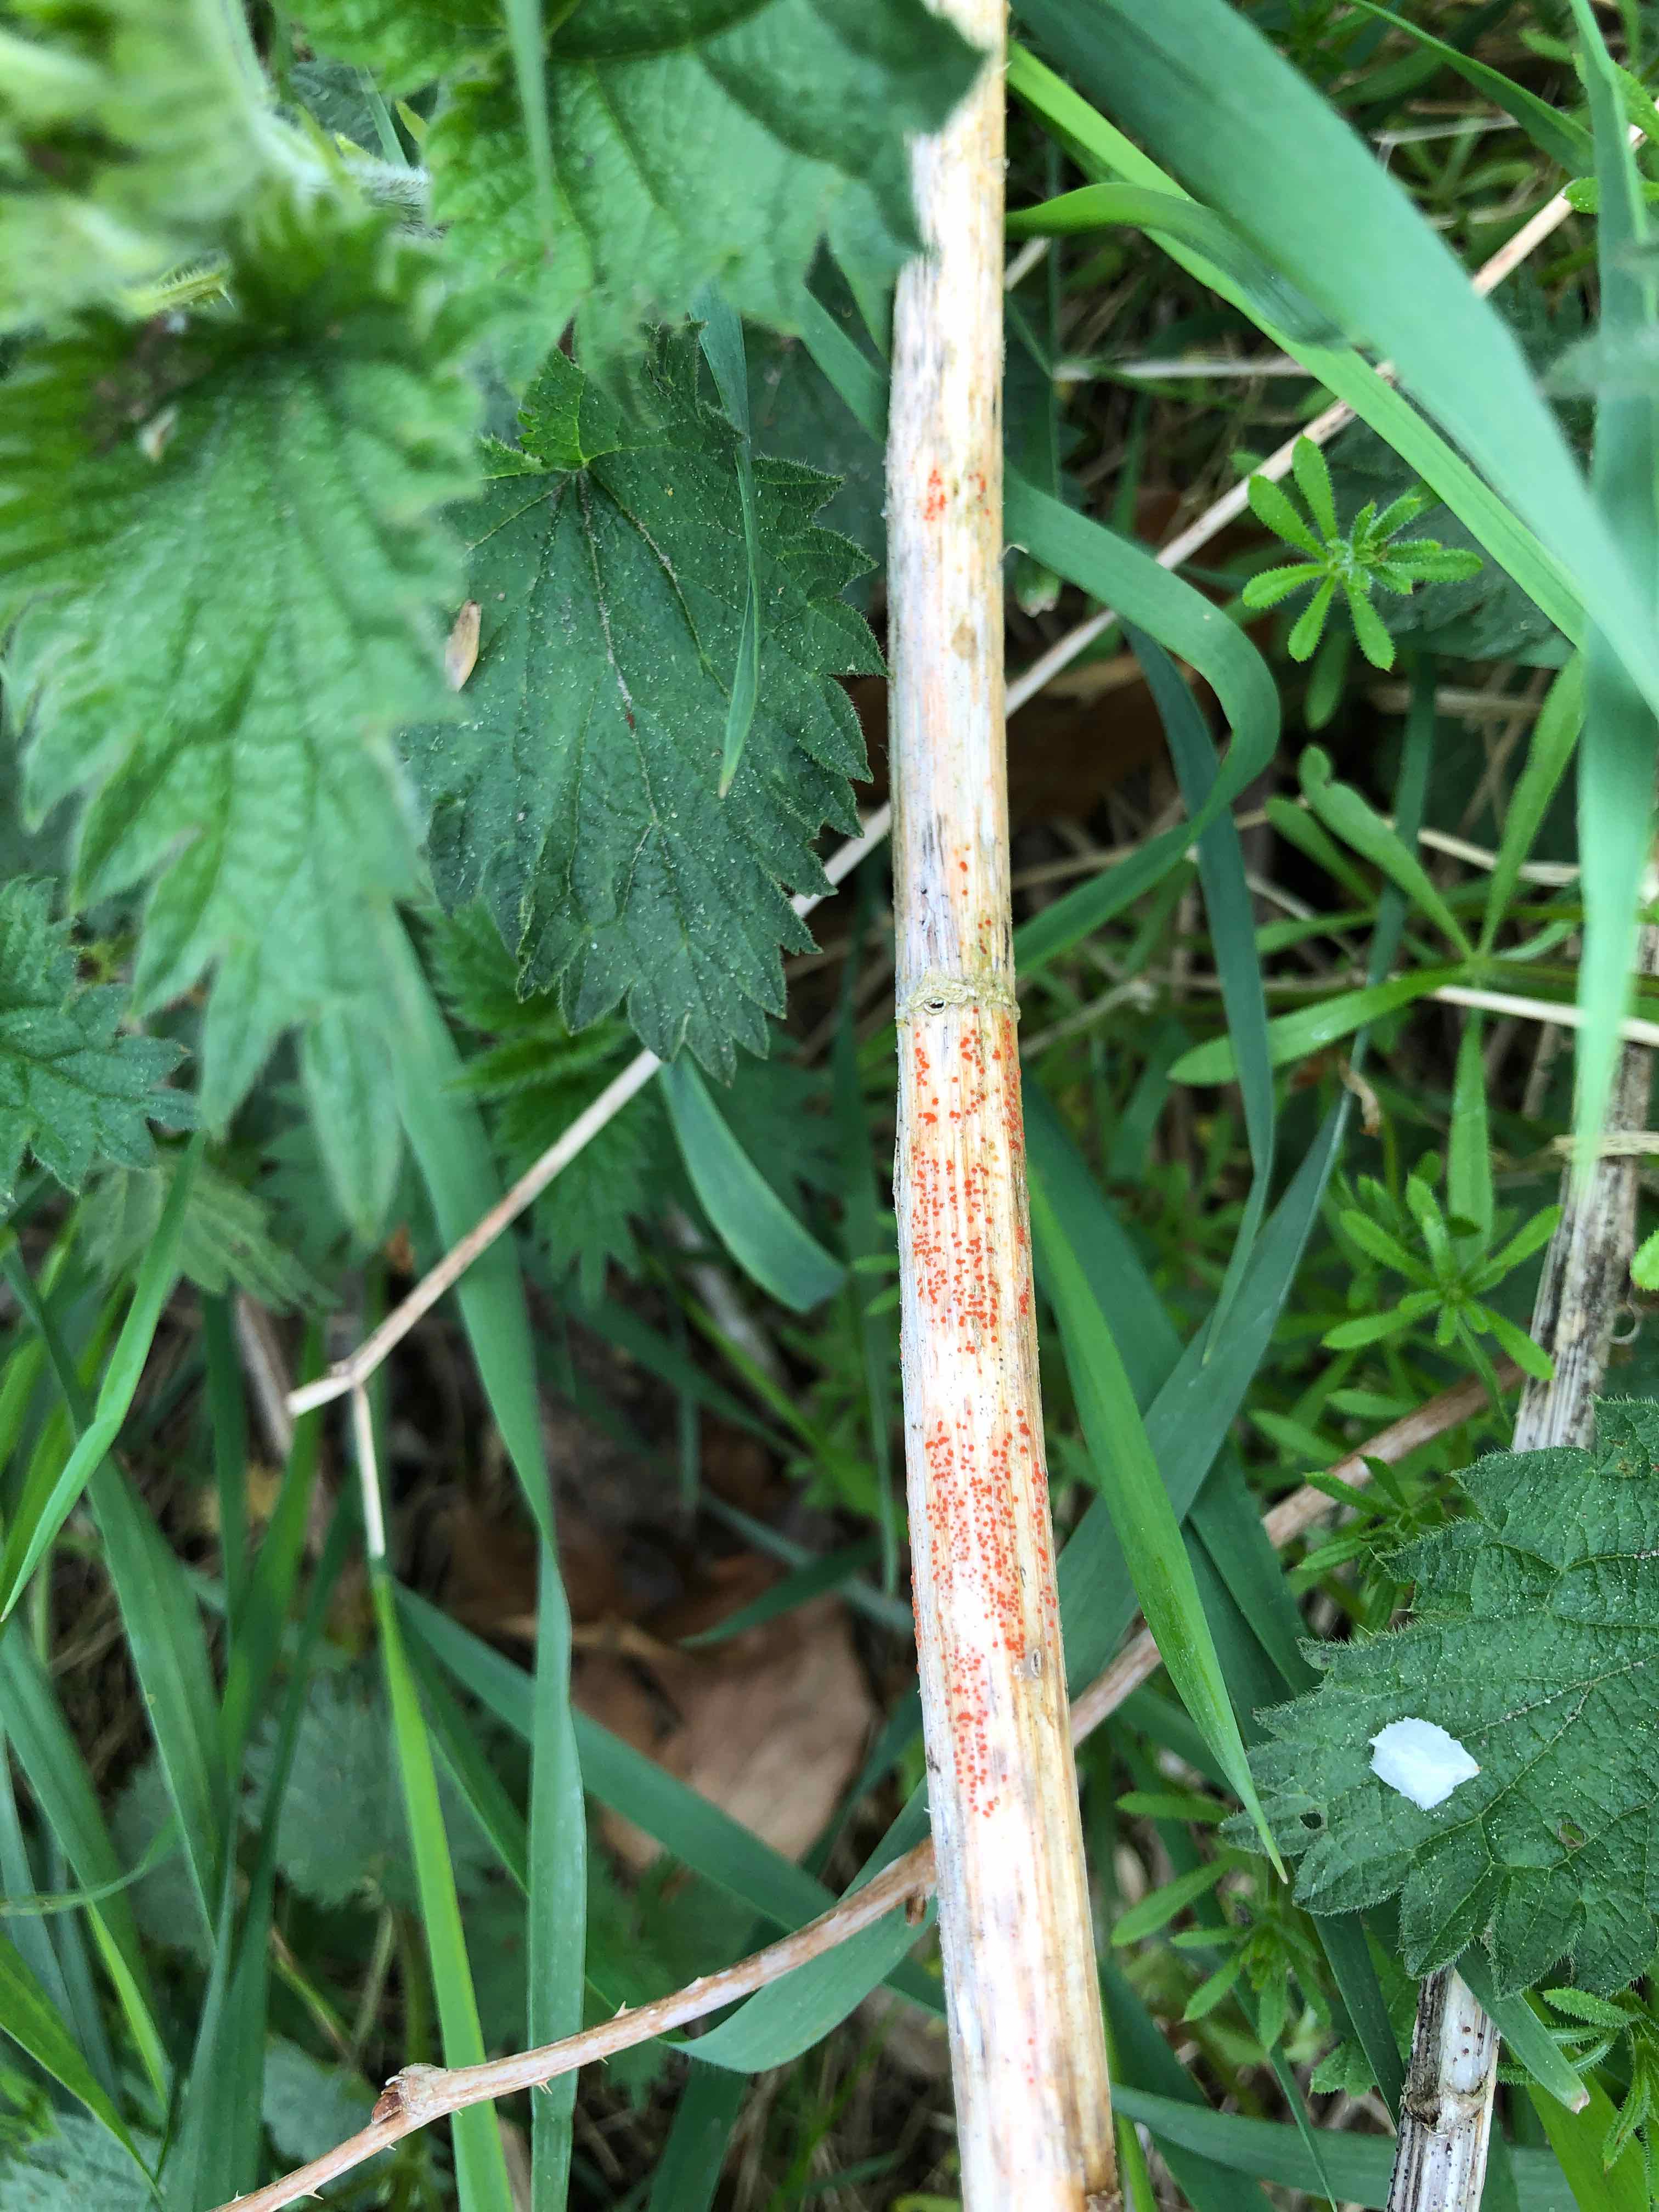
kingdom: Fungi
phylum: Ascomycota
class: Leotiomycetes
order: Helotiales
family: Calloriaceae
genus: Calloria
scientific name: Calloria urticae
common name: nælde-orangeskive
